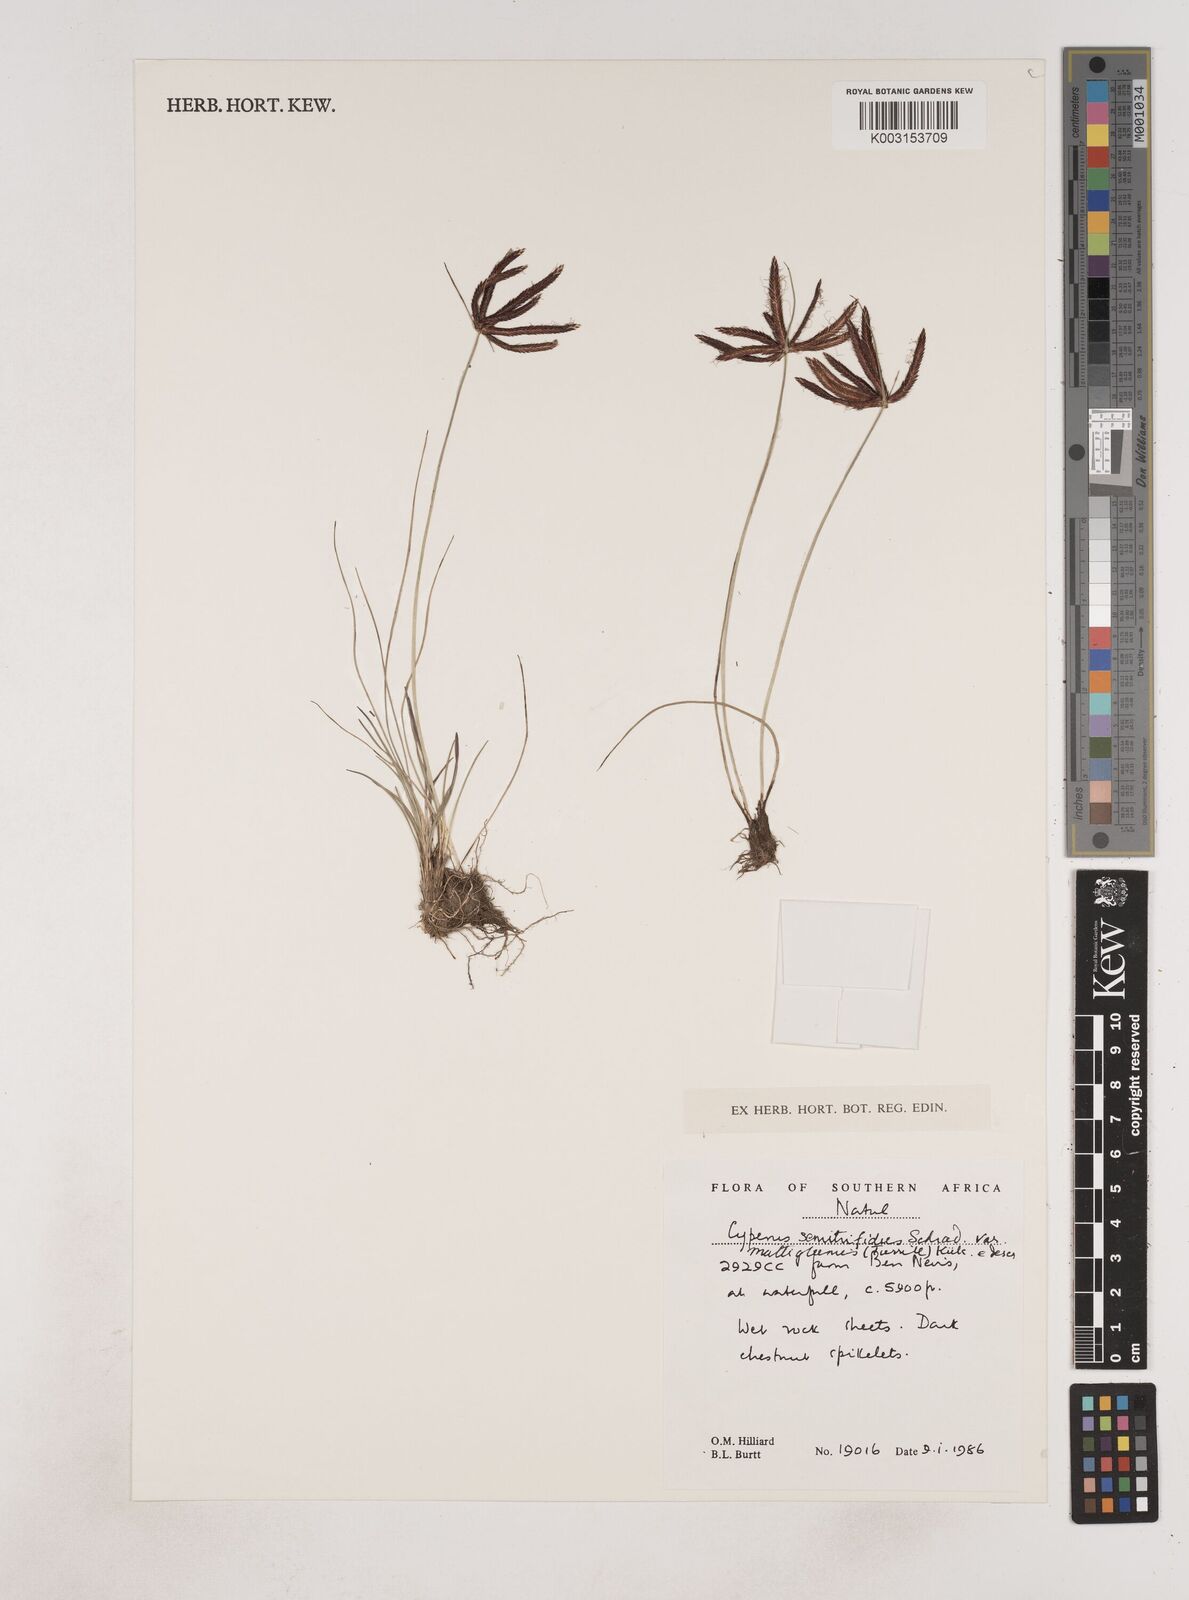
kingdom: Plantae
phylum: Tracheophyta
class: Liliopsida
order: Poales
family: Cyperaceae
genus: Cyperus
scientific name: Cyperus semitrifidus
